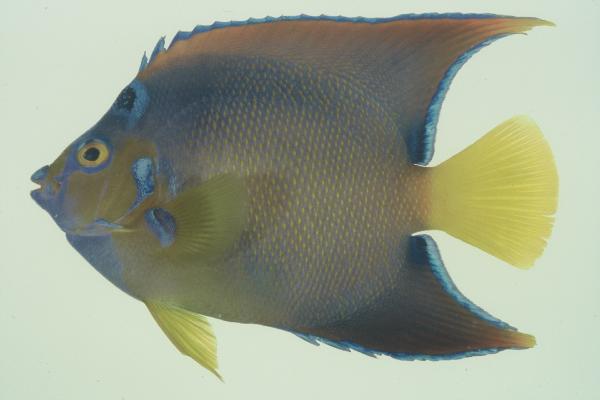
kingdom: Animalia
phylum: Chordata
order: Perciformes
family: Pomacanthidae
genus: Holacanthus
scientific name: Holacanthus ciliaris
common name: Queen angelfish
